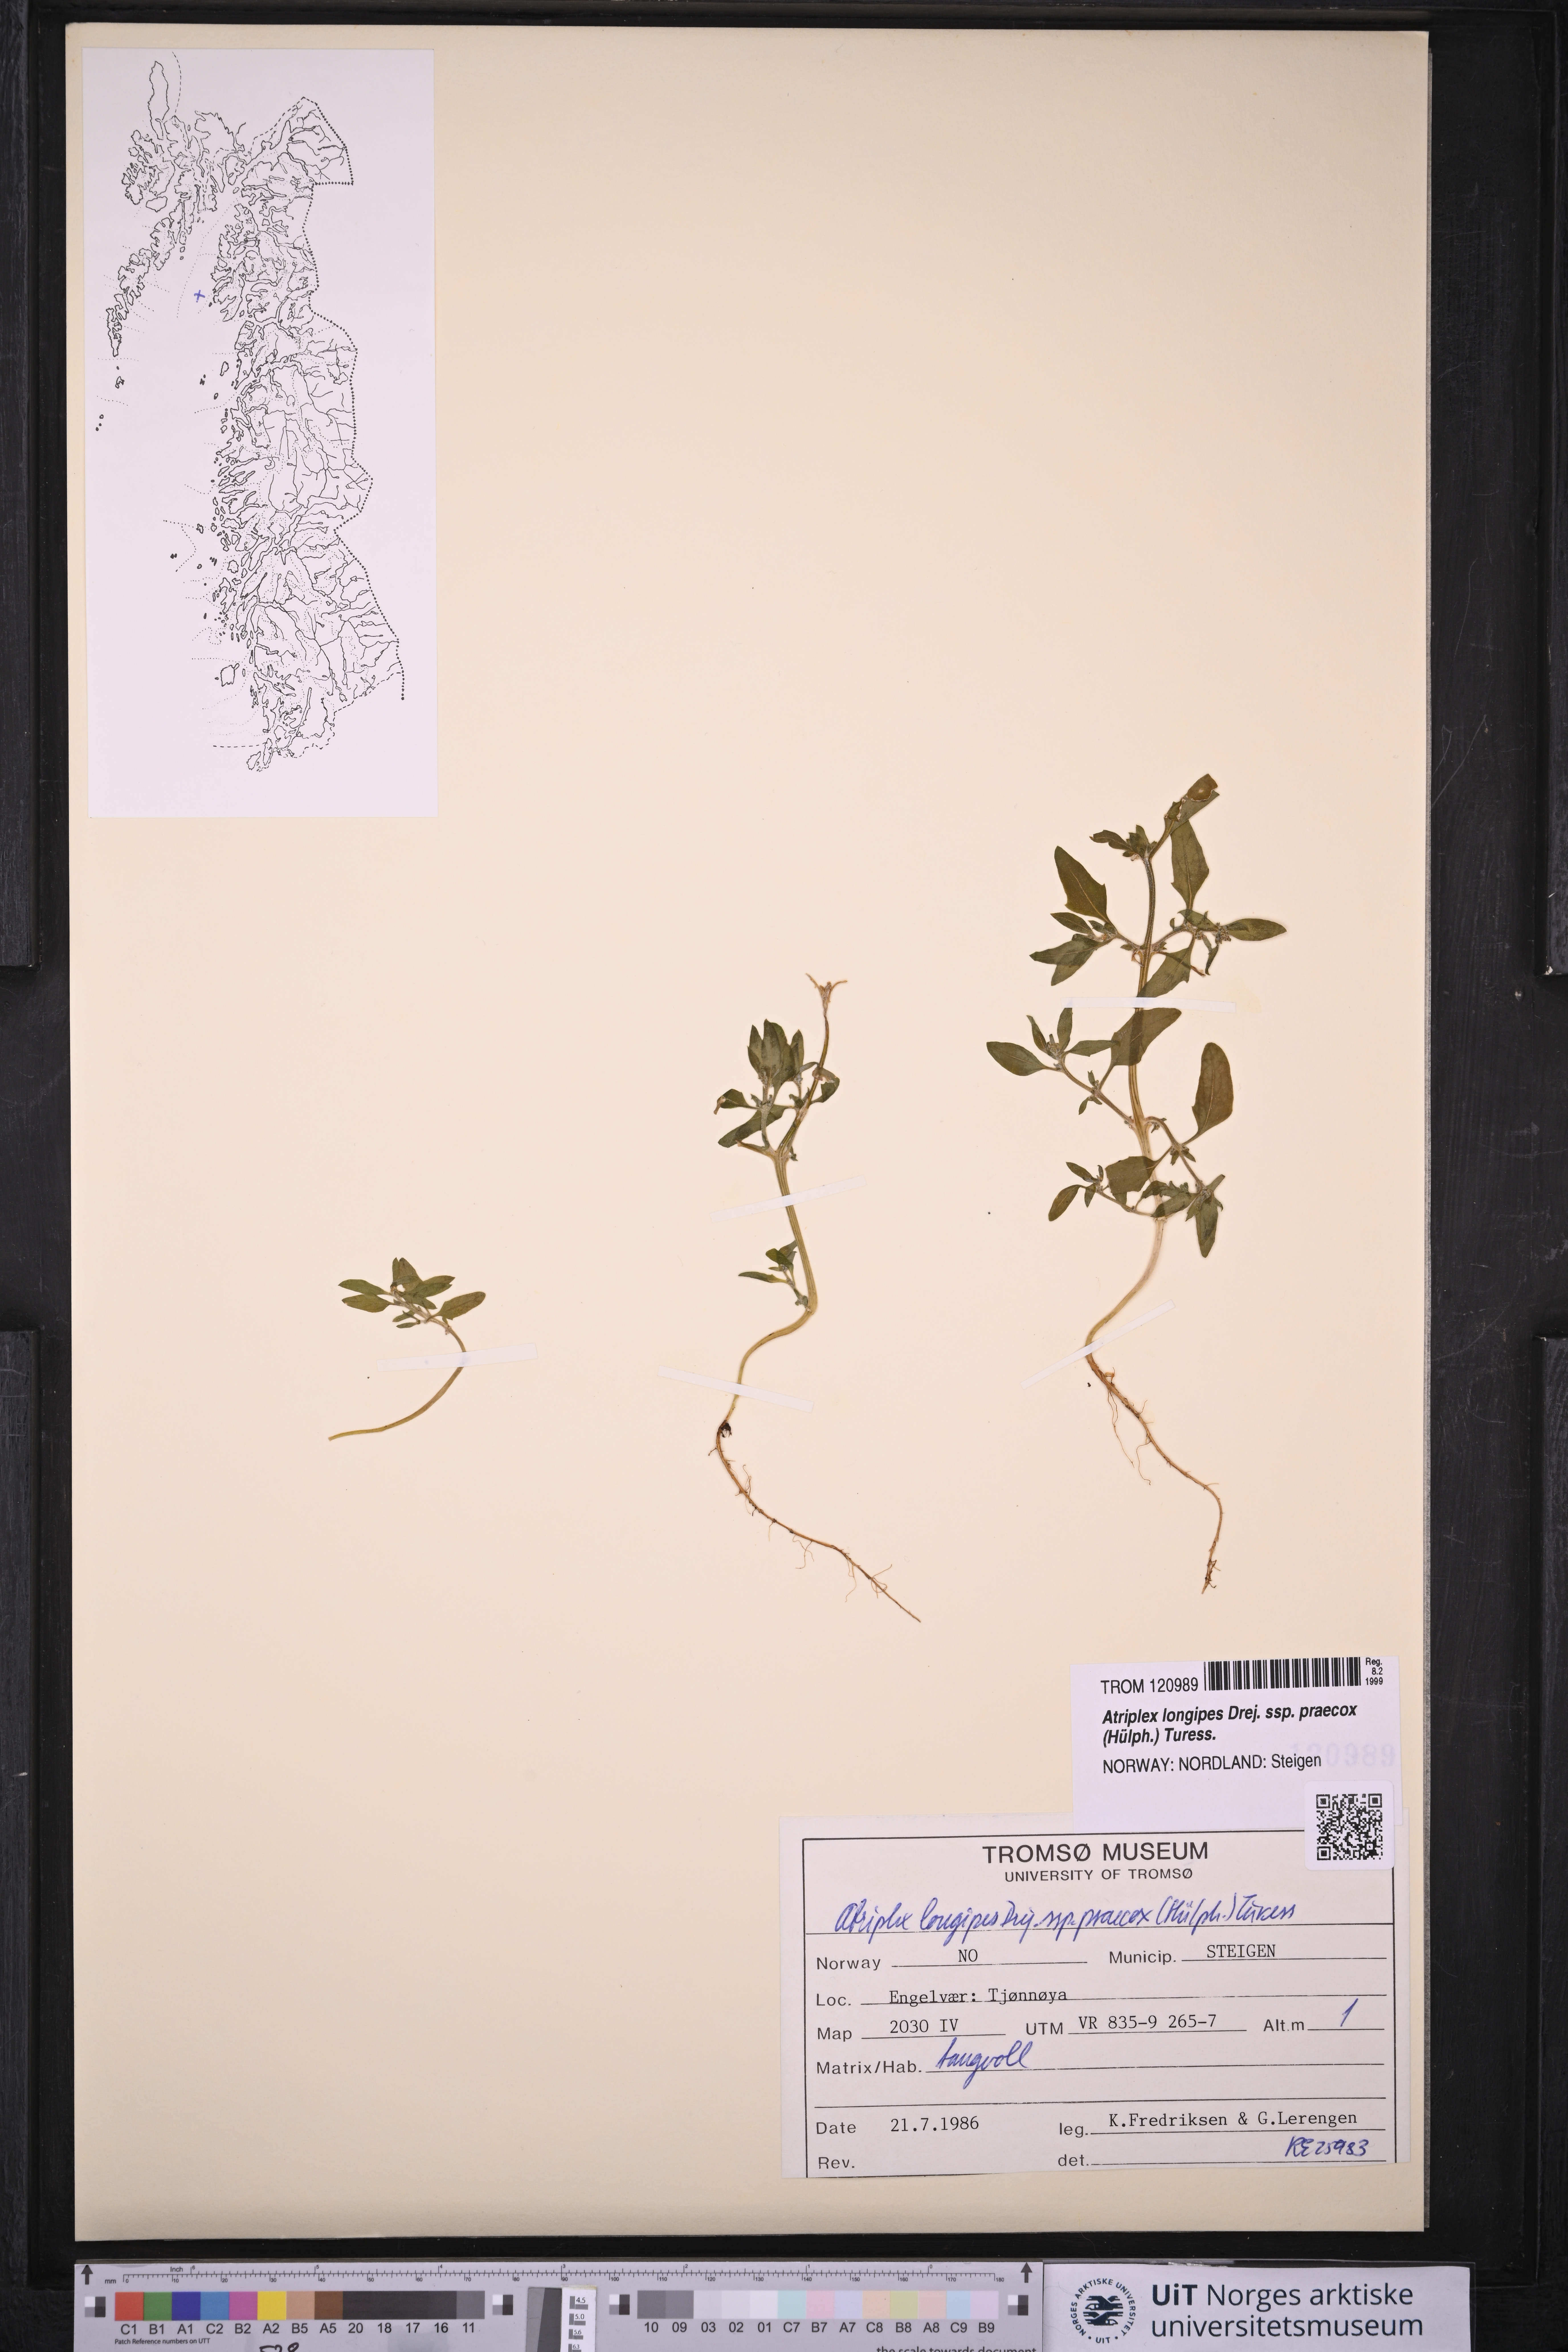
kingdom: Plantae
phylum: Tracheophyta
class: Magnoliopsida
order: Caryophyllales
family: Amaranthaceae
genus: Atriplex
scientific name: Atriplex praecox
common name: Early orache
